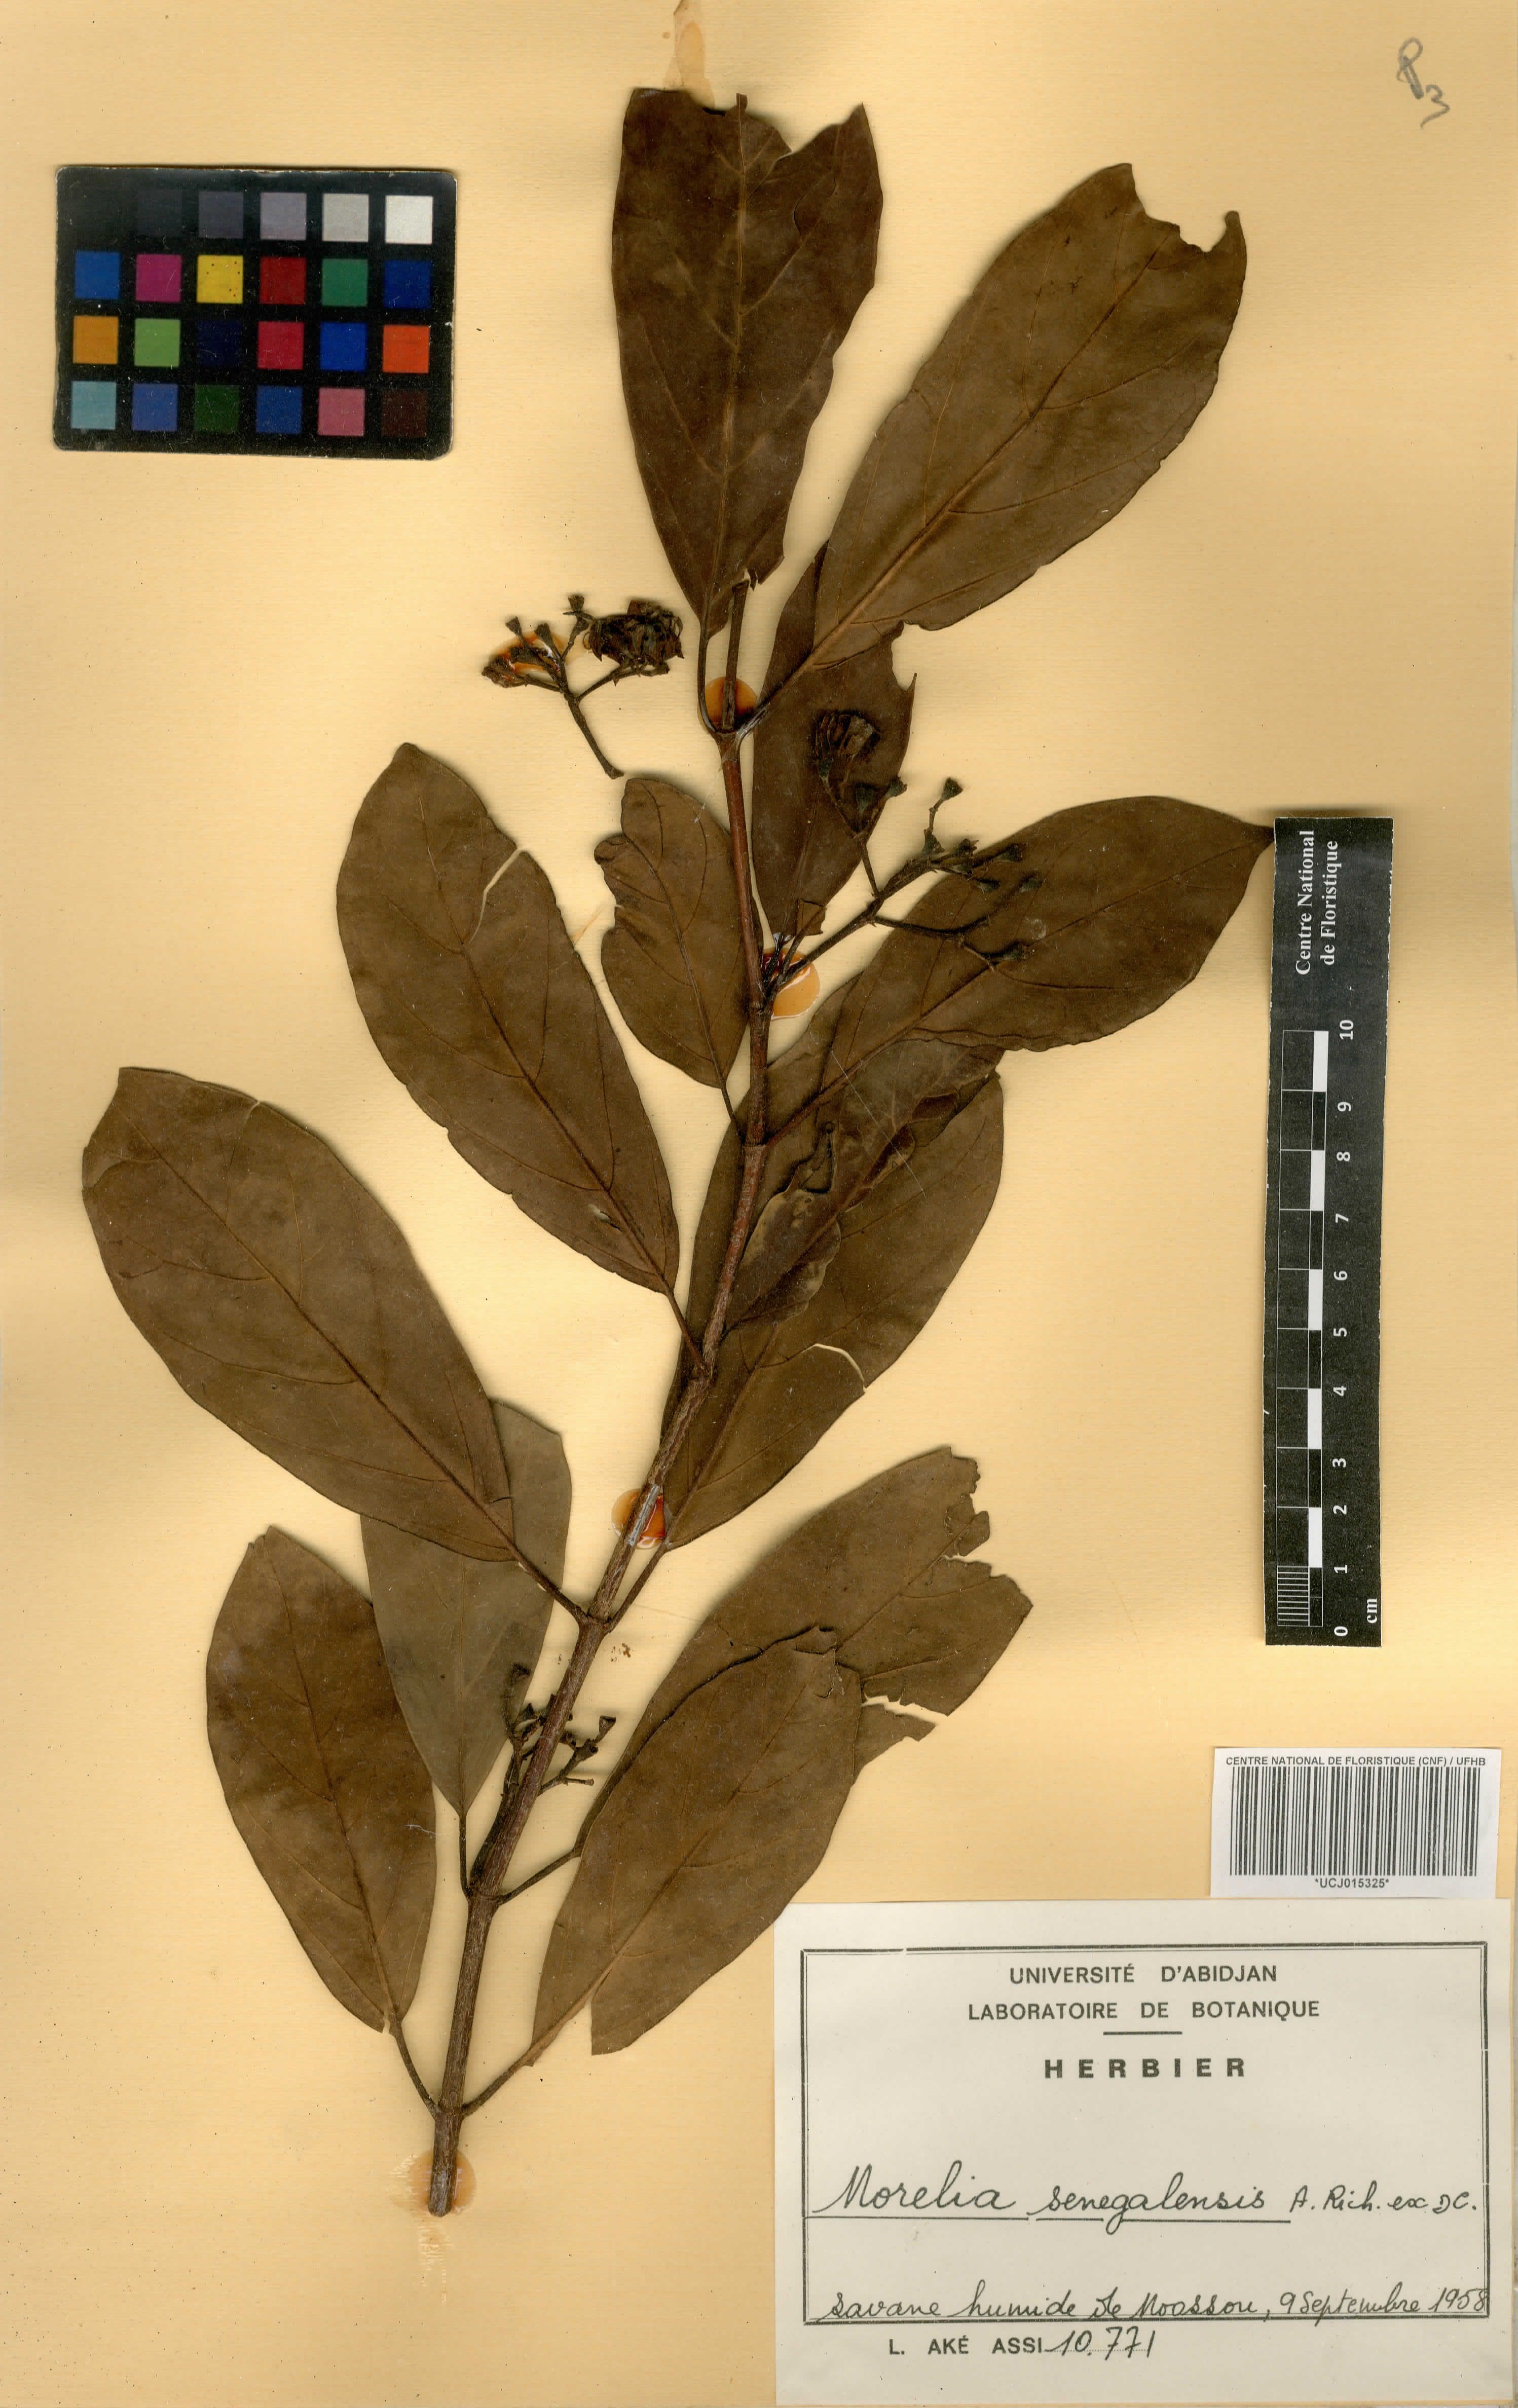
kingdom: Plantae
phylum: Tracheophyta
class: Magnoliopsida
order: Gentianales
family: Rubiaceae
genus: Morelia
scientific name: Morelia senegalensis
